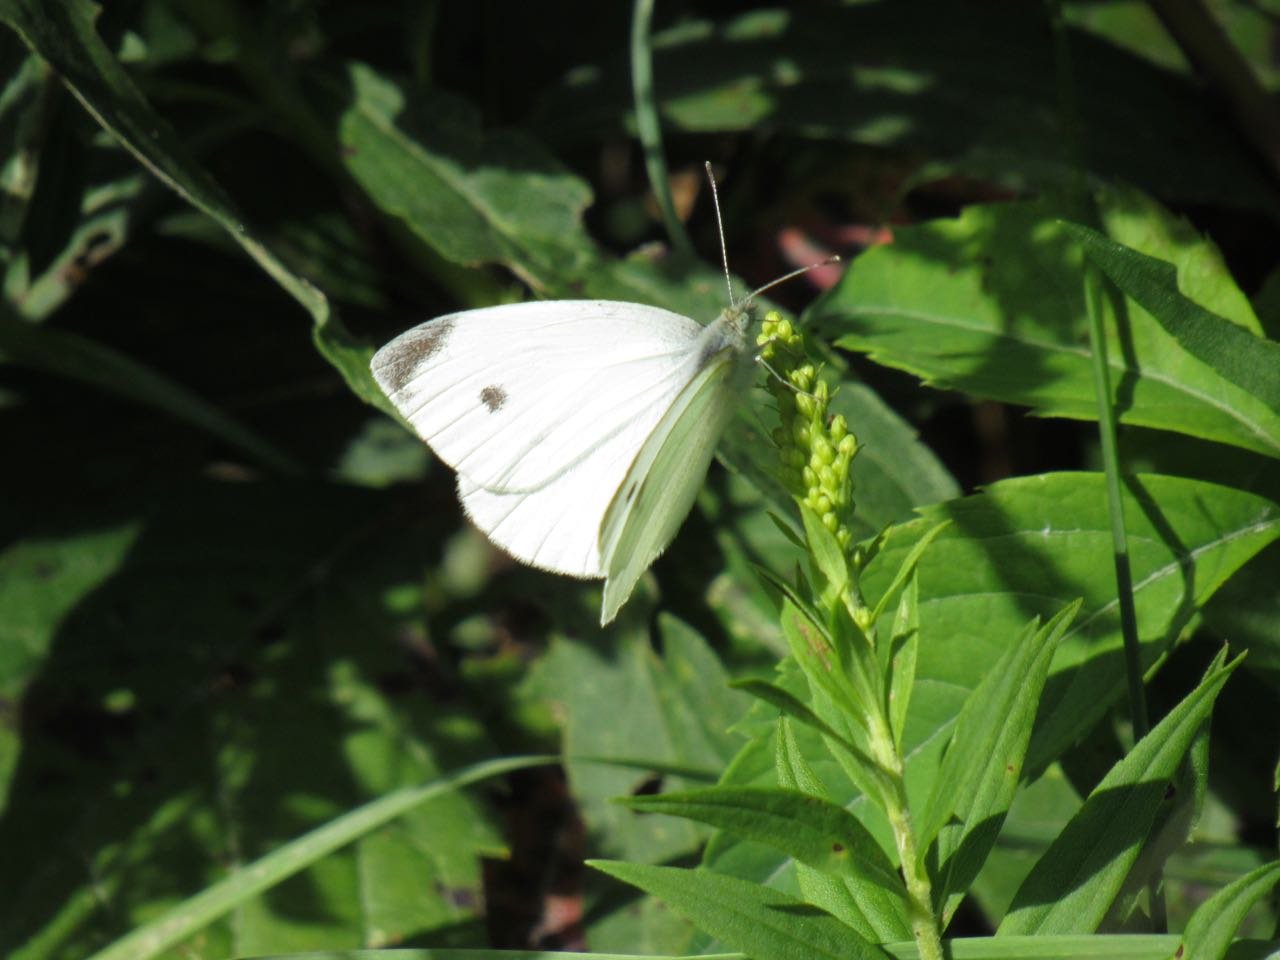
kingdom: Animalia
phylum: Arthropoda
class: Insecta
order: Lepidoptera
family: Pieridae
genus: Pieris
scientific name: Pieris rapae
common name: Cabbage White
